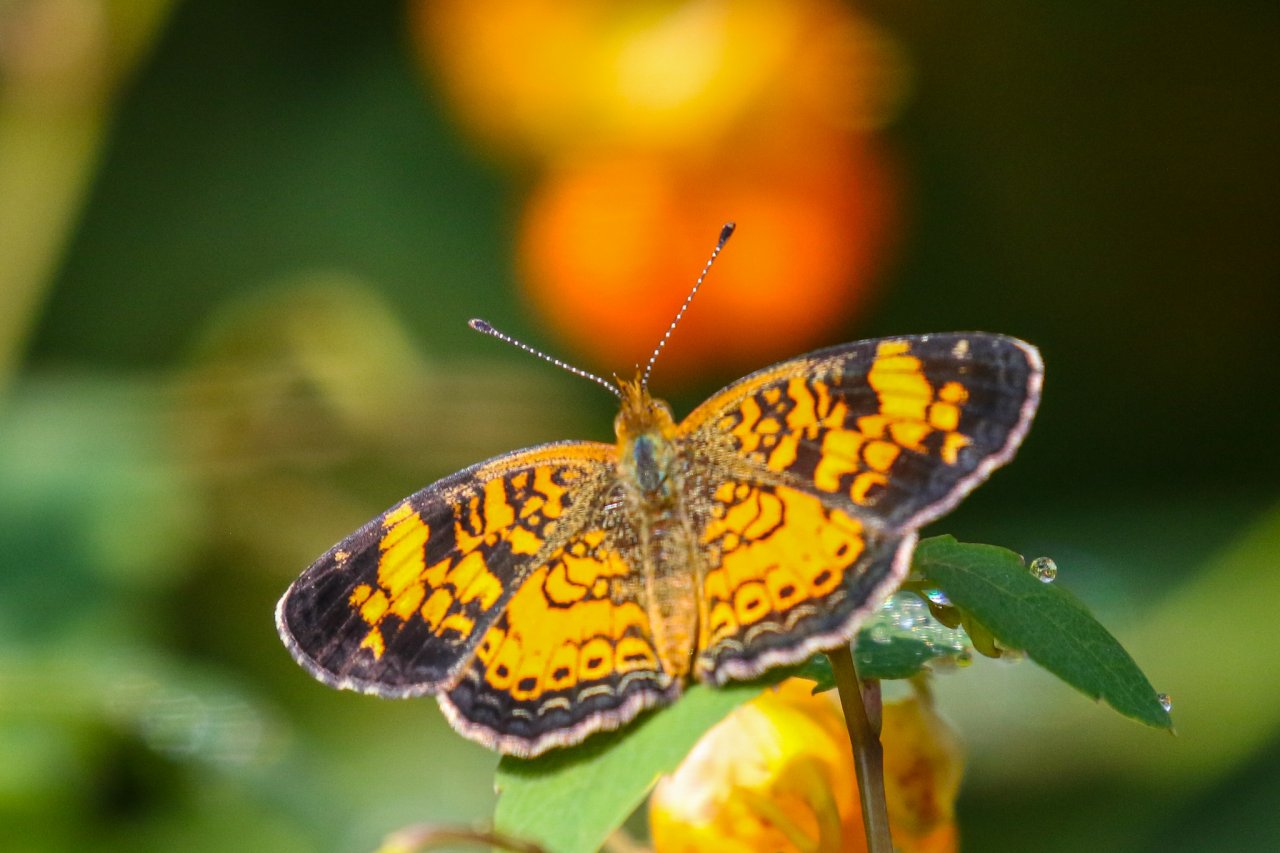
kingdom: Animalia
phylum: Arthropoda
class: Insecta
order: Lepidoptera
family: Nymphalidae
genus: Phyciodes
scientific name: Phyciodes tharos
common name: Pearl Crescent
